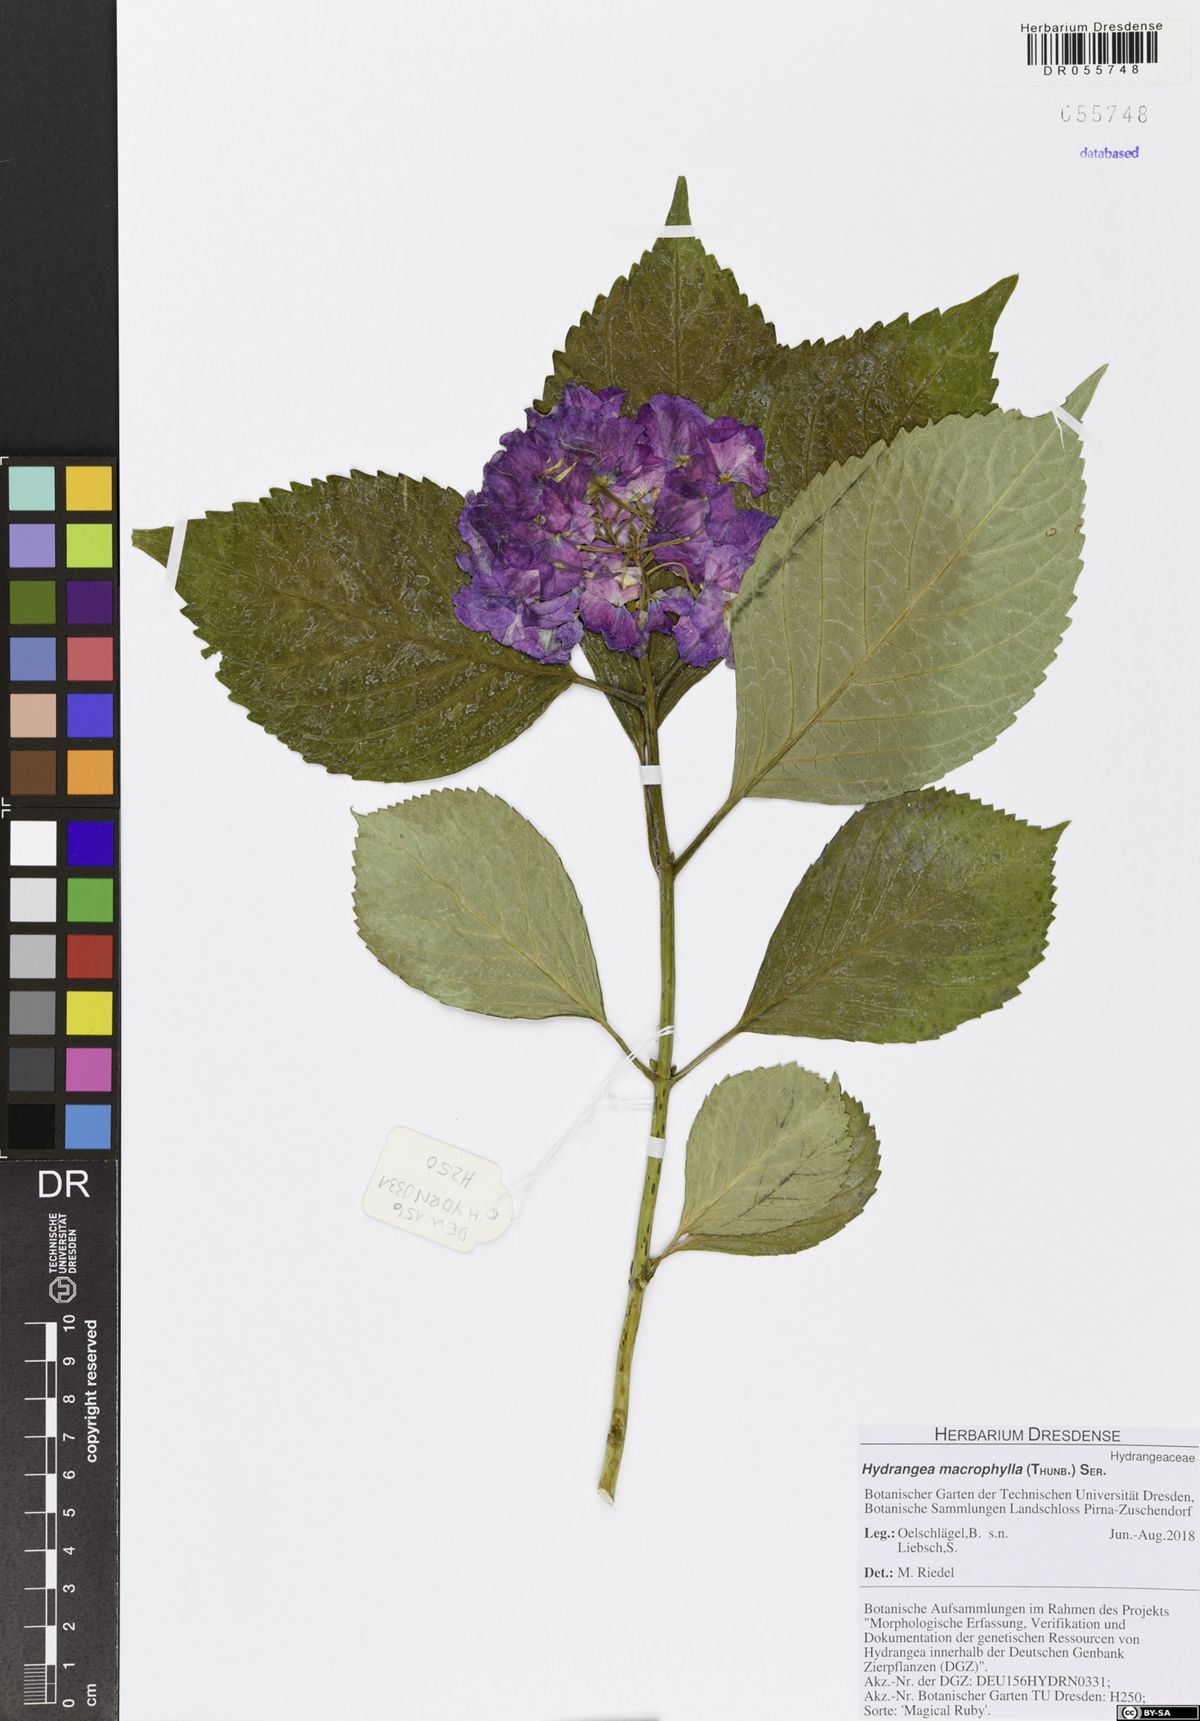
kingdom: Plantae
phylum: Tracheophyta
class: Magnoliopsida
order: Cornales
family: Hydrangeaceae
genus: Hydrangea
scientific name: Hydrangea macrophylla
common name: Hydrangea
